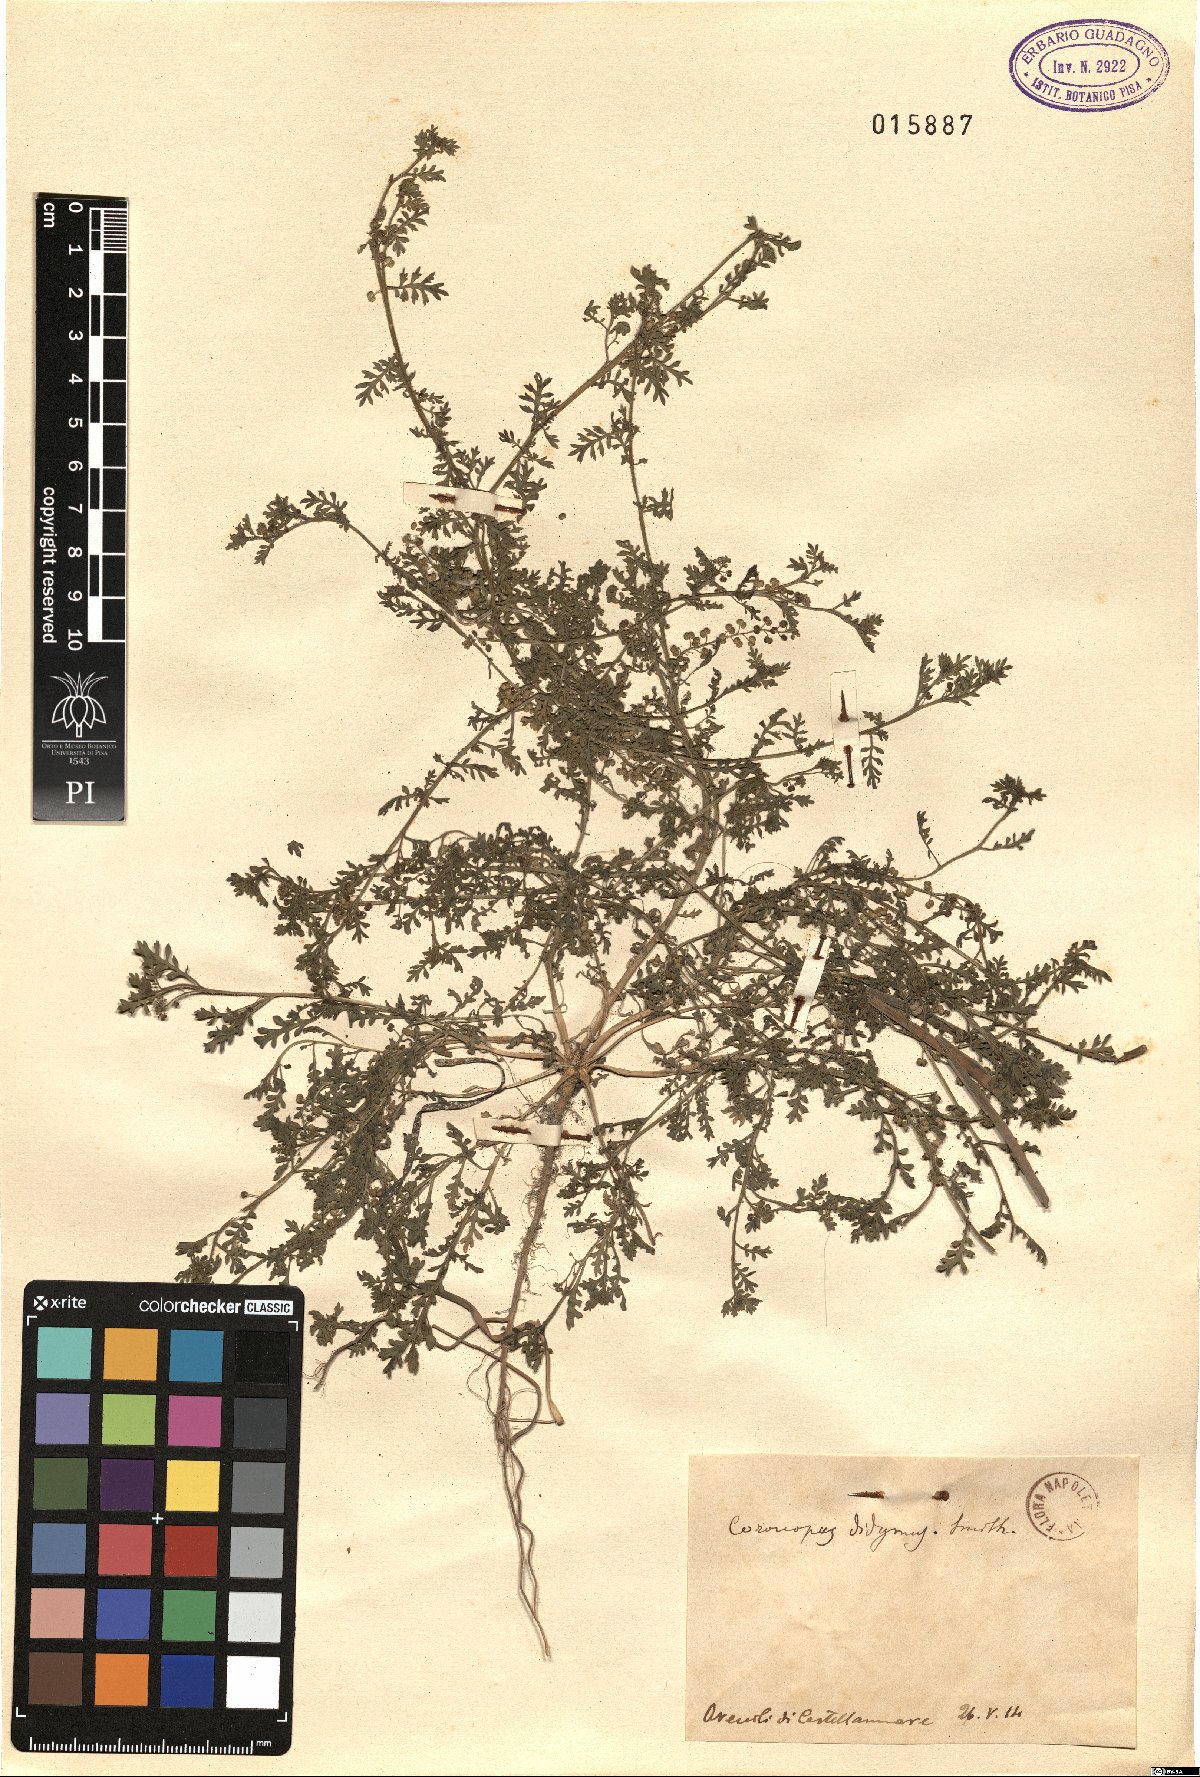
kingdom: Plantae
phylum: Tracheophyta
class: Magnoliopsida
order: Brassicales
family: Brassicaceae
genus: Lepidium
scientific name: Lepidium didymum
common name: Lesser swinecress
